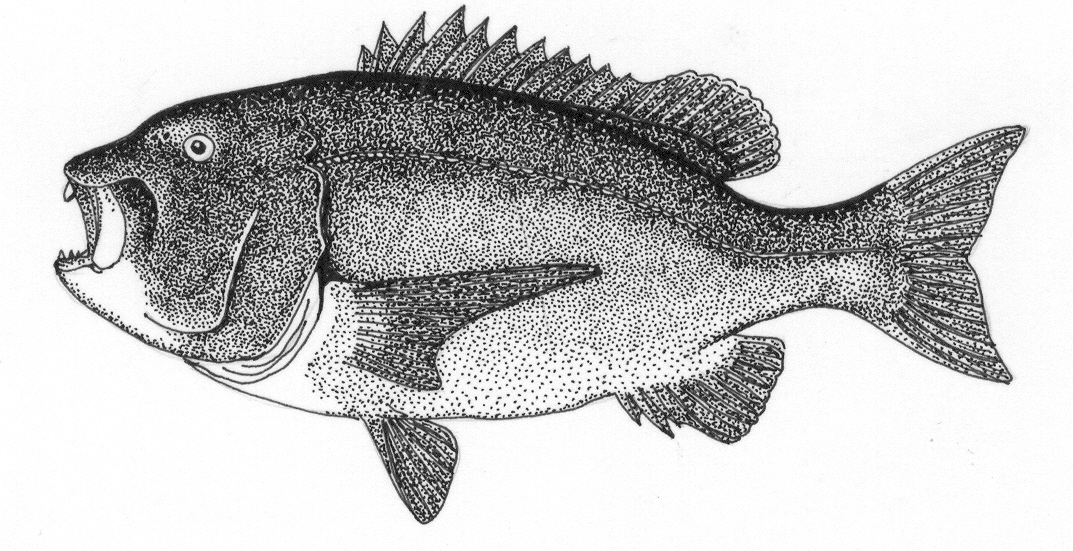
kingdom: Animalia
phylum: Chordata
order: Perciformes
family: Sparidae
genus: Cymatoceps
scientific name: Cymatoceps nasutus
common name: Black musselcracker
